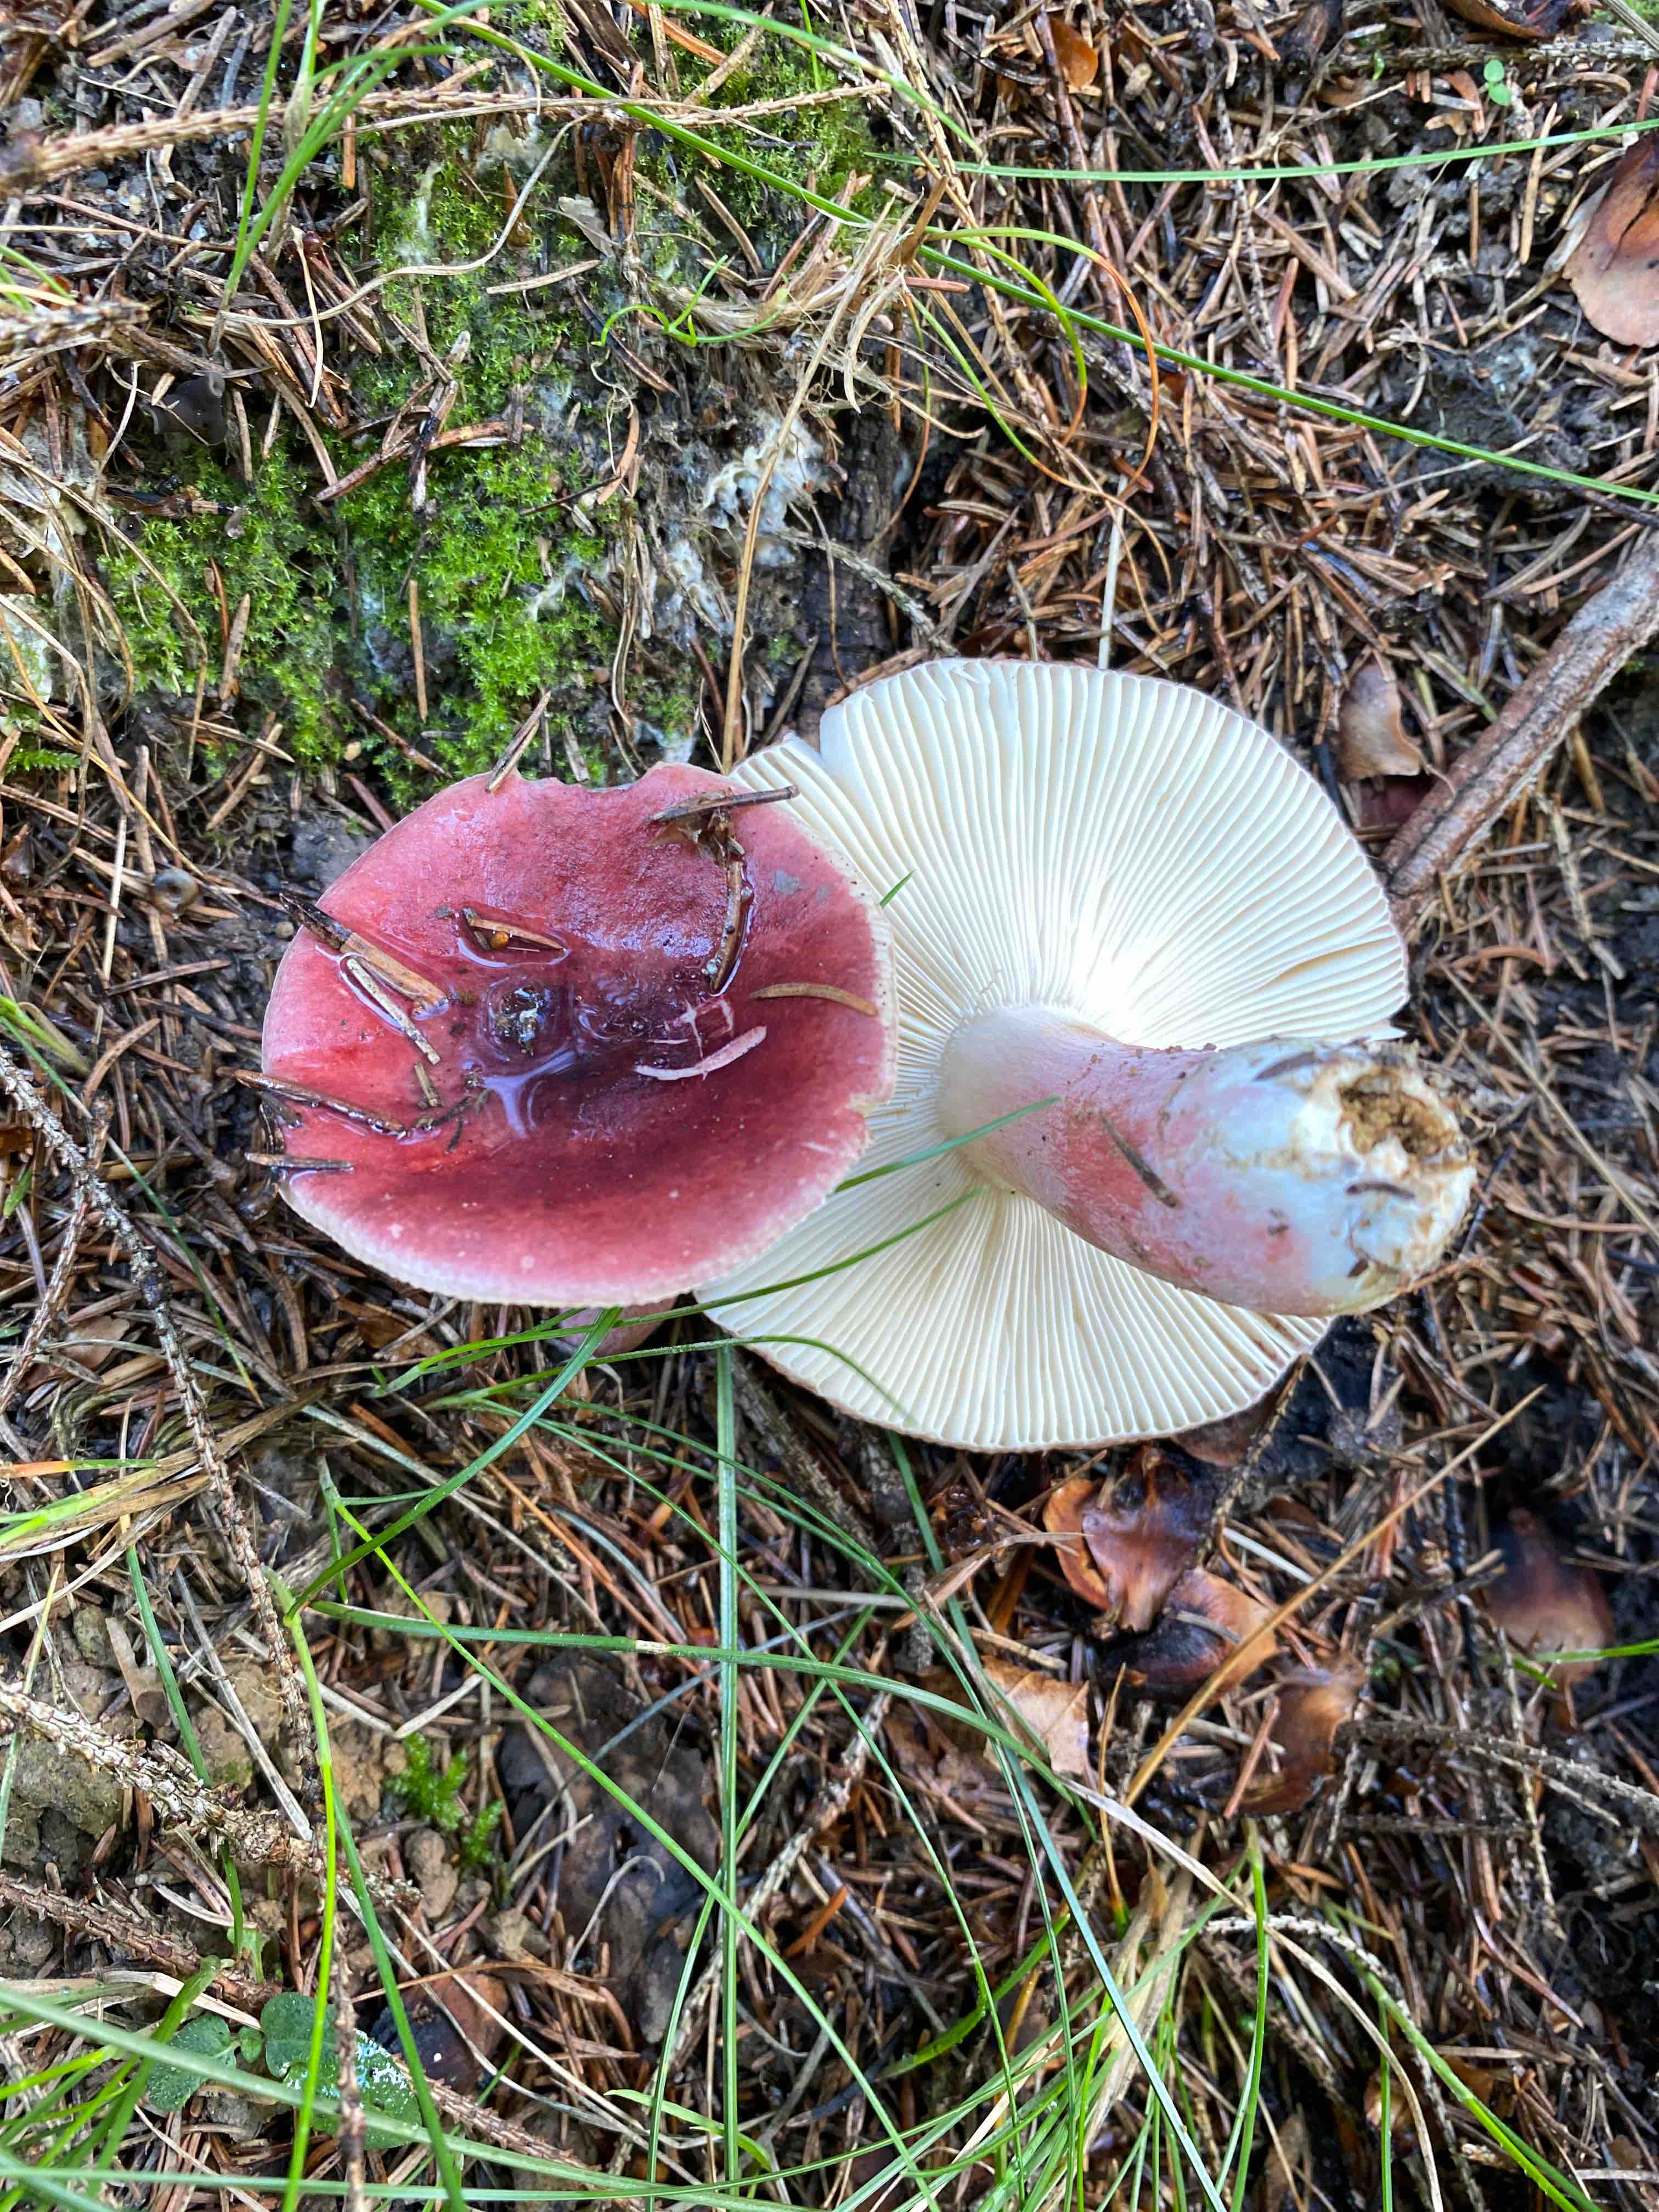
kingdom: Fungi
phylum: Basidiomycota
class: Agaricomycetes
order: Russulales
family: Russulaceae
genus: Russula
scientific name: Russula queletii
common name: Quélets skørhat
